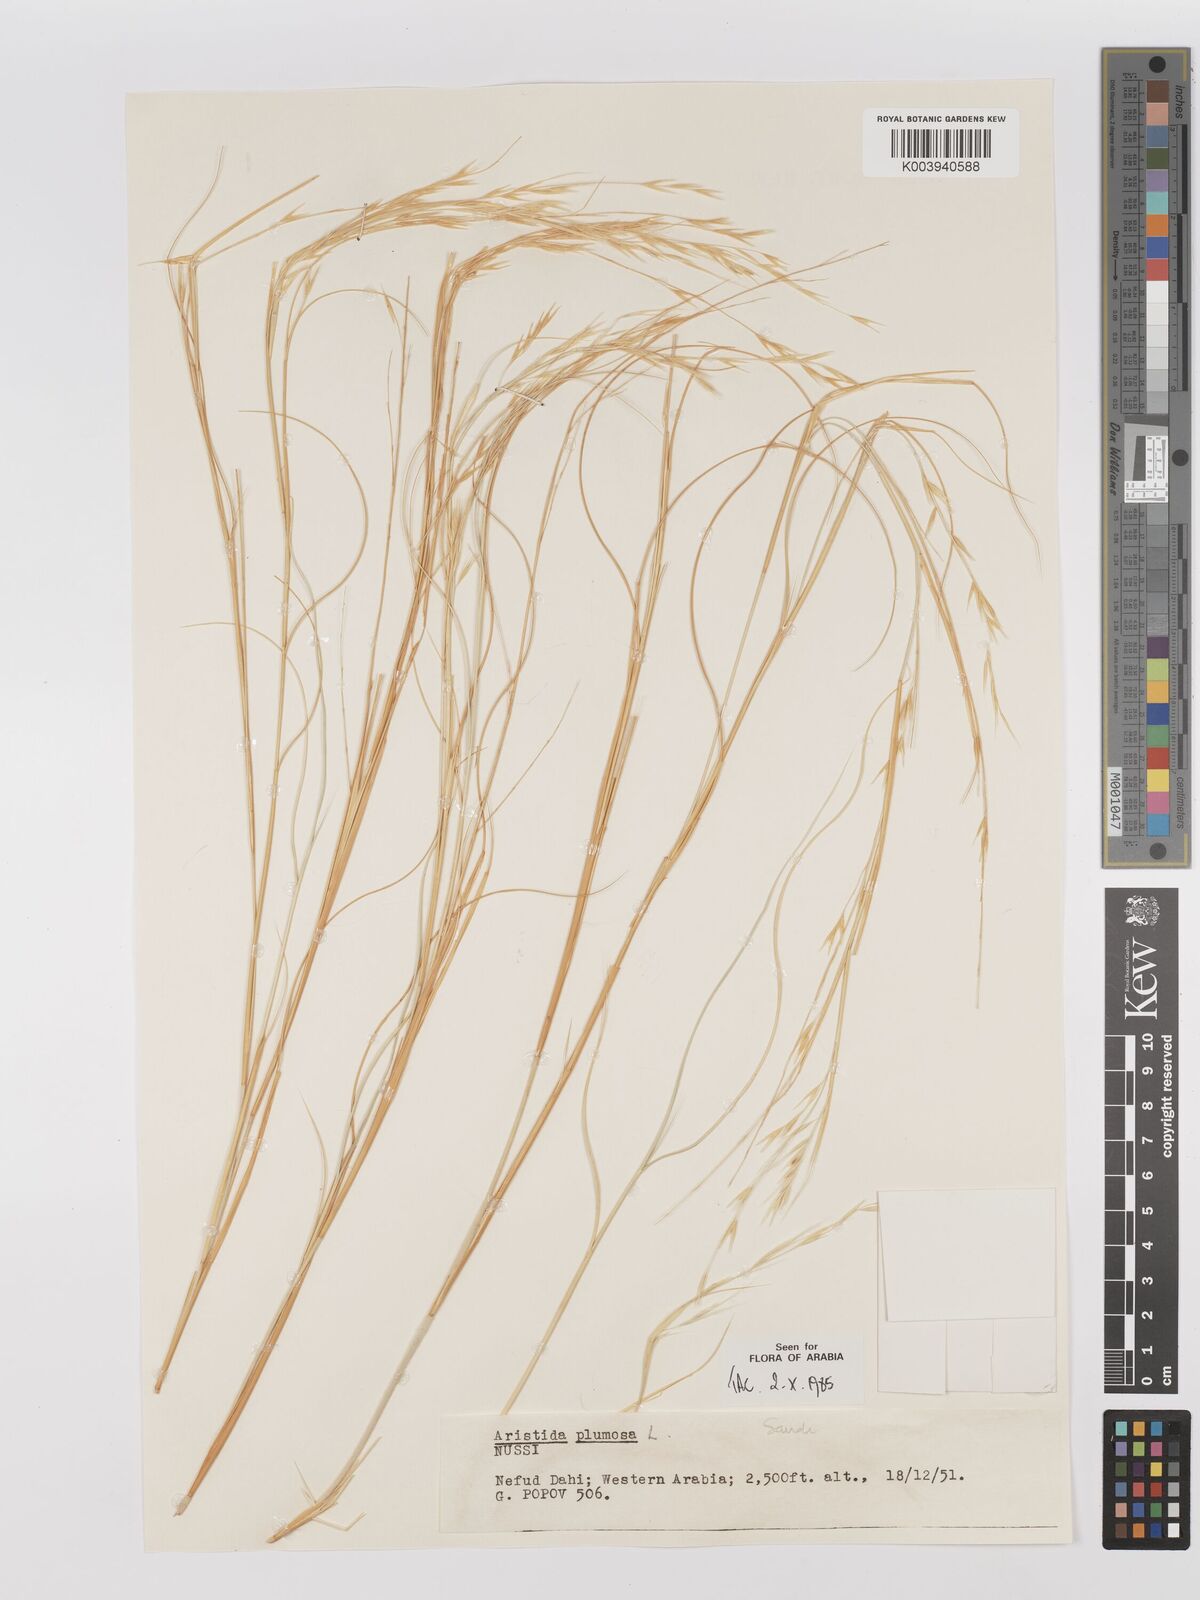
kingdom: Plantae
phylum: Tracheophyta
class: Liliopsida
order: Poales
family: Poaceae
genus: Stipagrostis
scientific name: Stipagrostis plumosa
